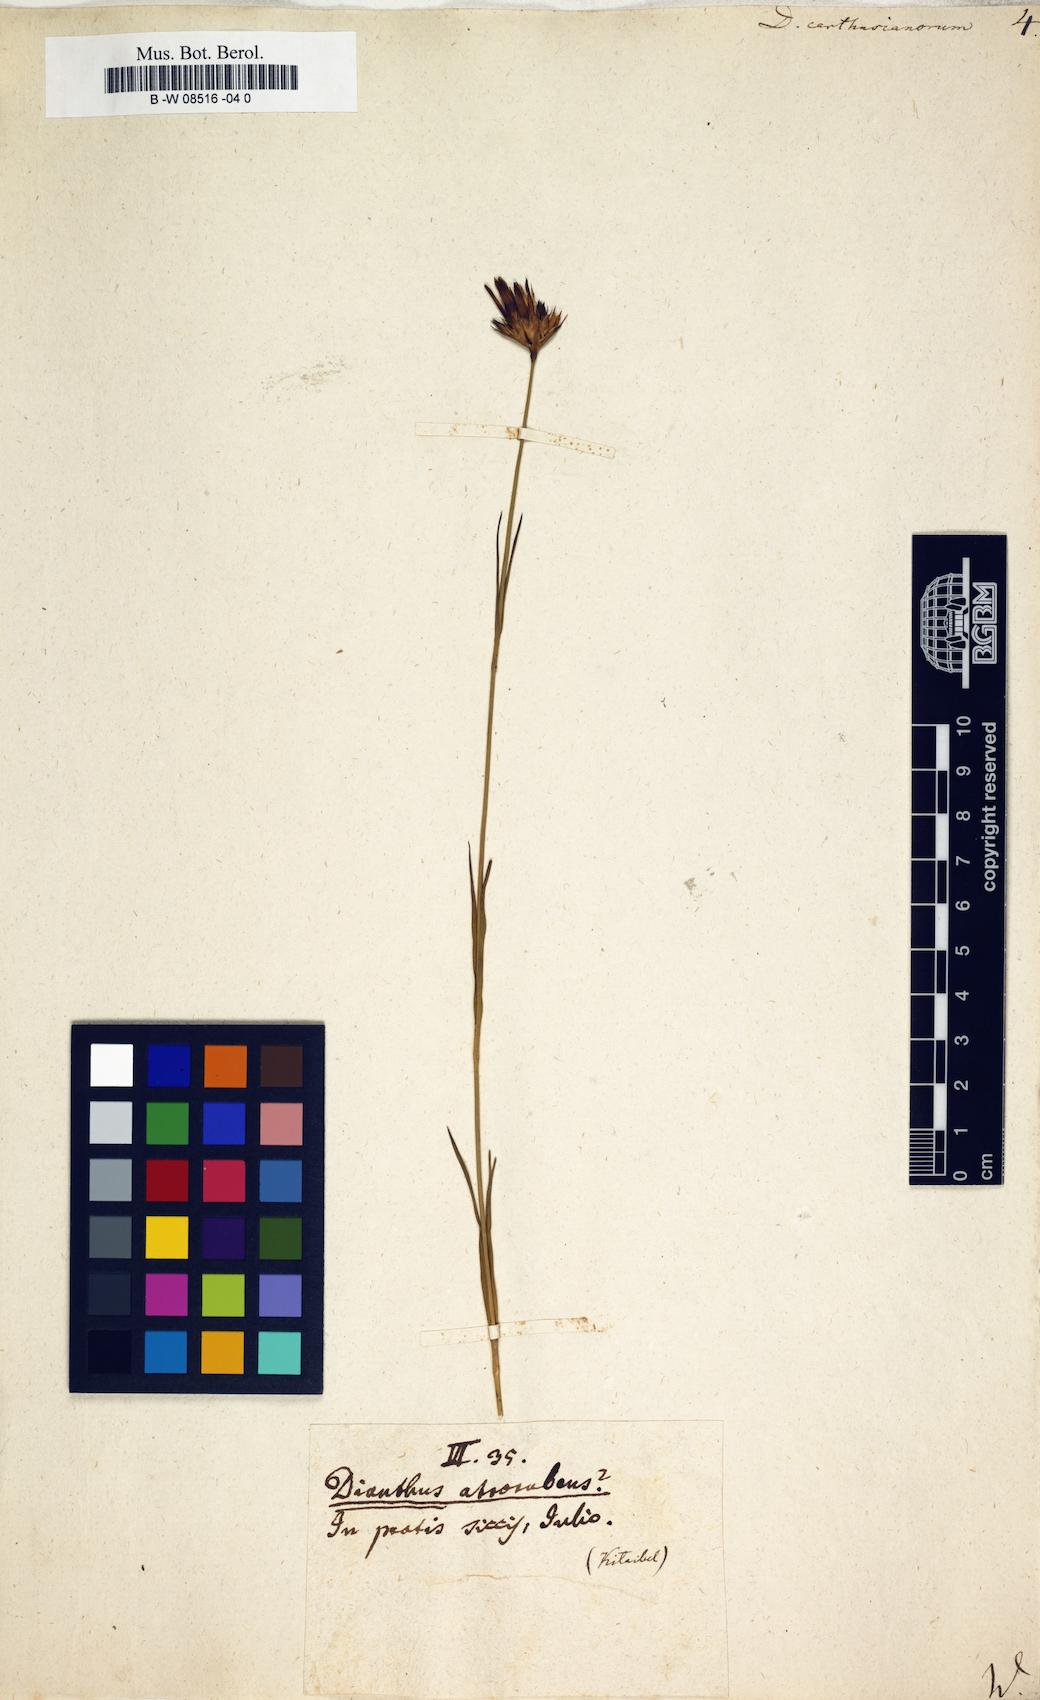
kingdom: Plantae
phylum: Tracheophyta
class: Magnoliopsida
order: Caryophyllales
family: Caryophyllaceae
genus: Dianthus
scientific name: Dianthus carthusianorum
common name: Carthusian pink
